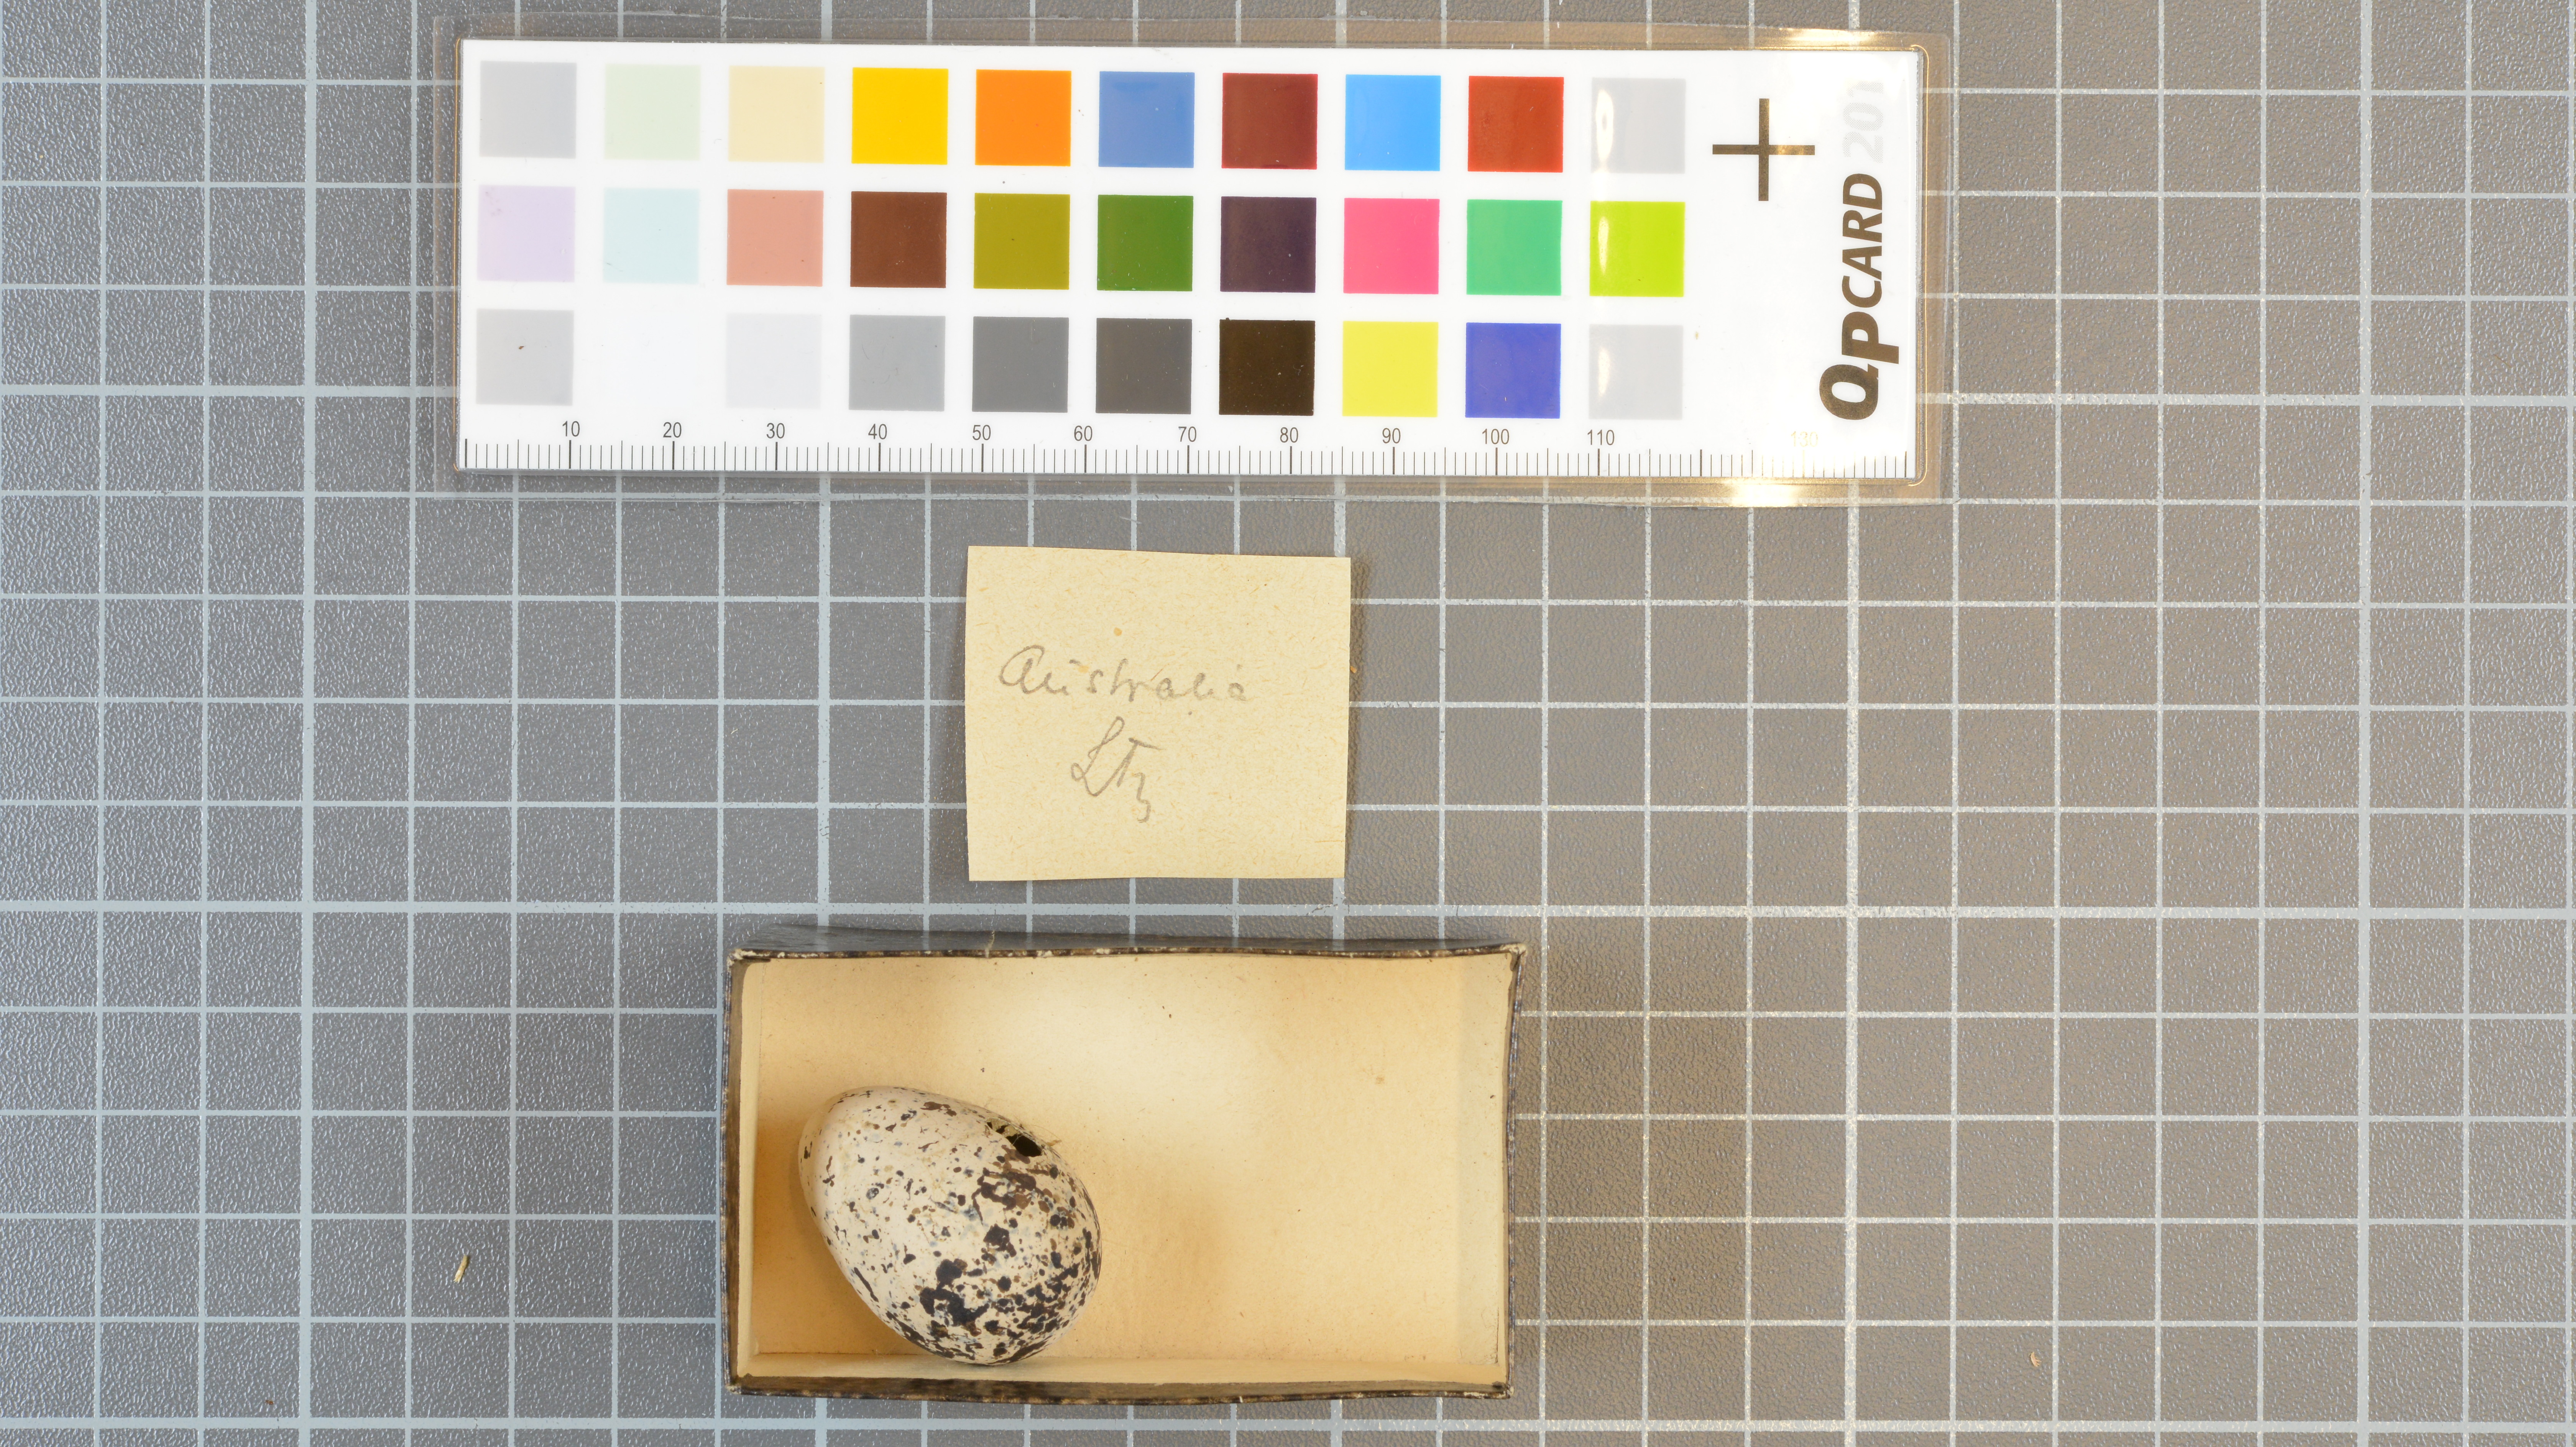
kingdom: Animalia
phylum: Chordata
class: Aves
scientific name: Aves
